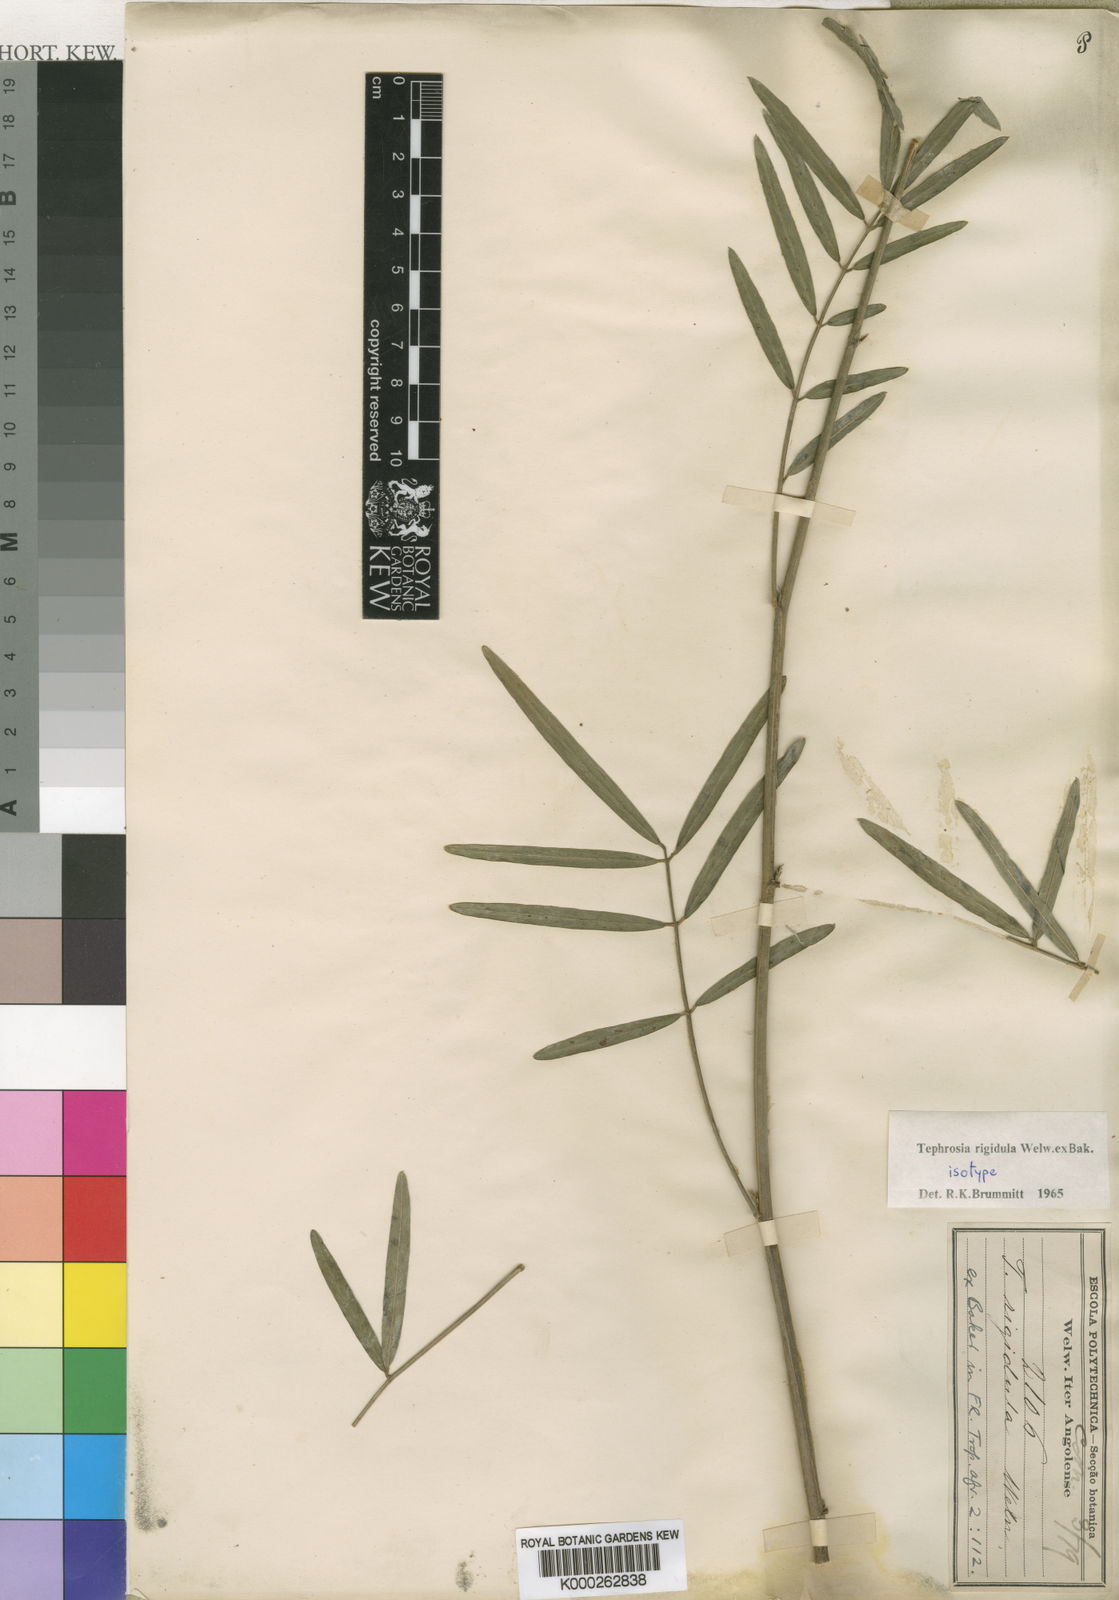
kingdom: Plantae
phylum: Tracheophyta
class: Magnoliopsida
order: Fabales
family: Fabaceae
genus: Tephrosia
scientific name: Tephrosia rigidula
